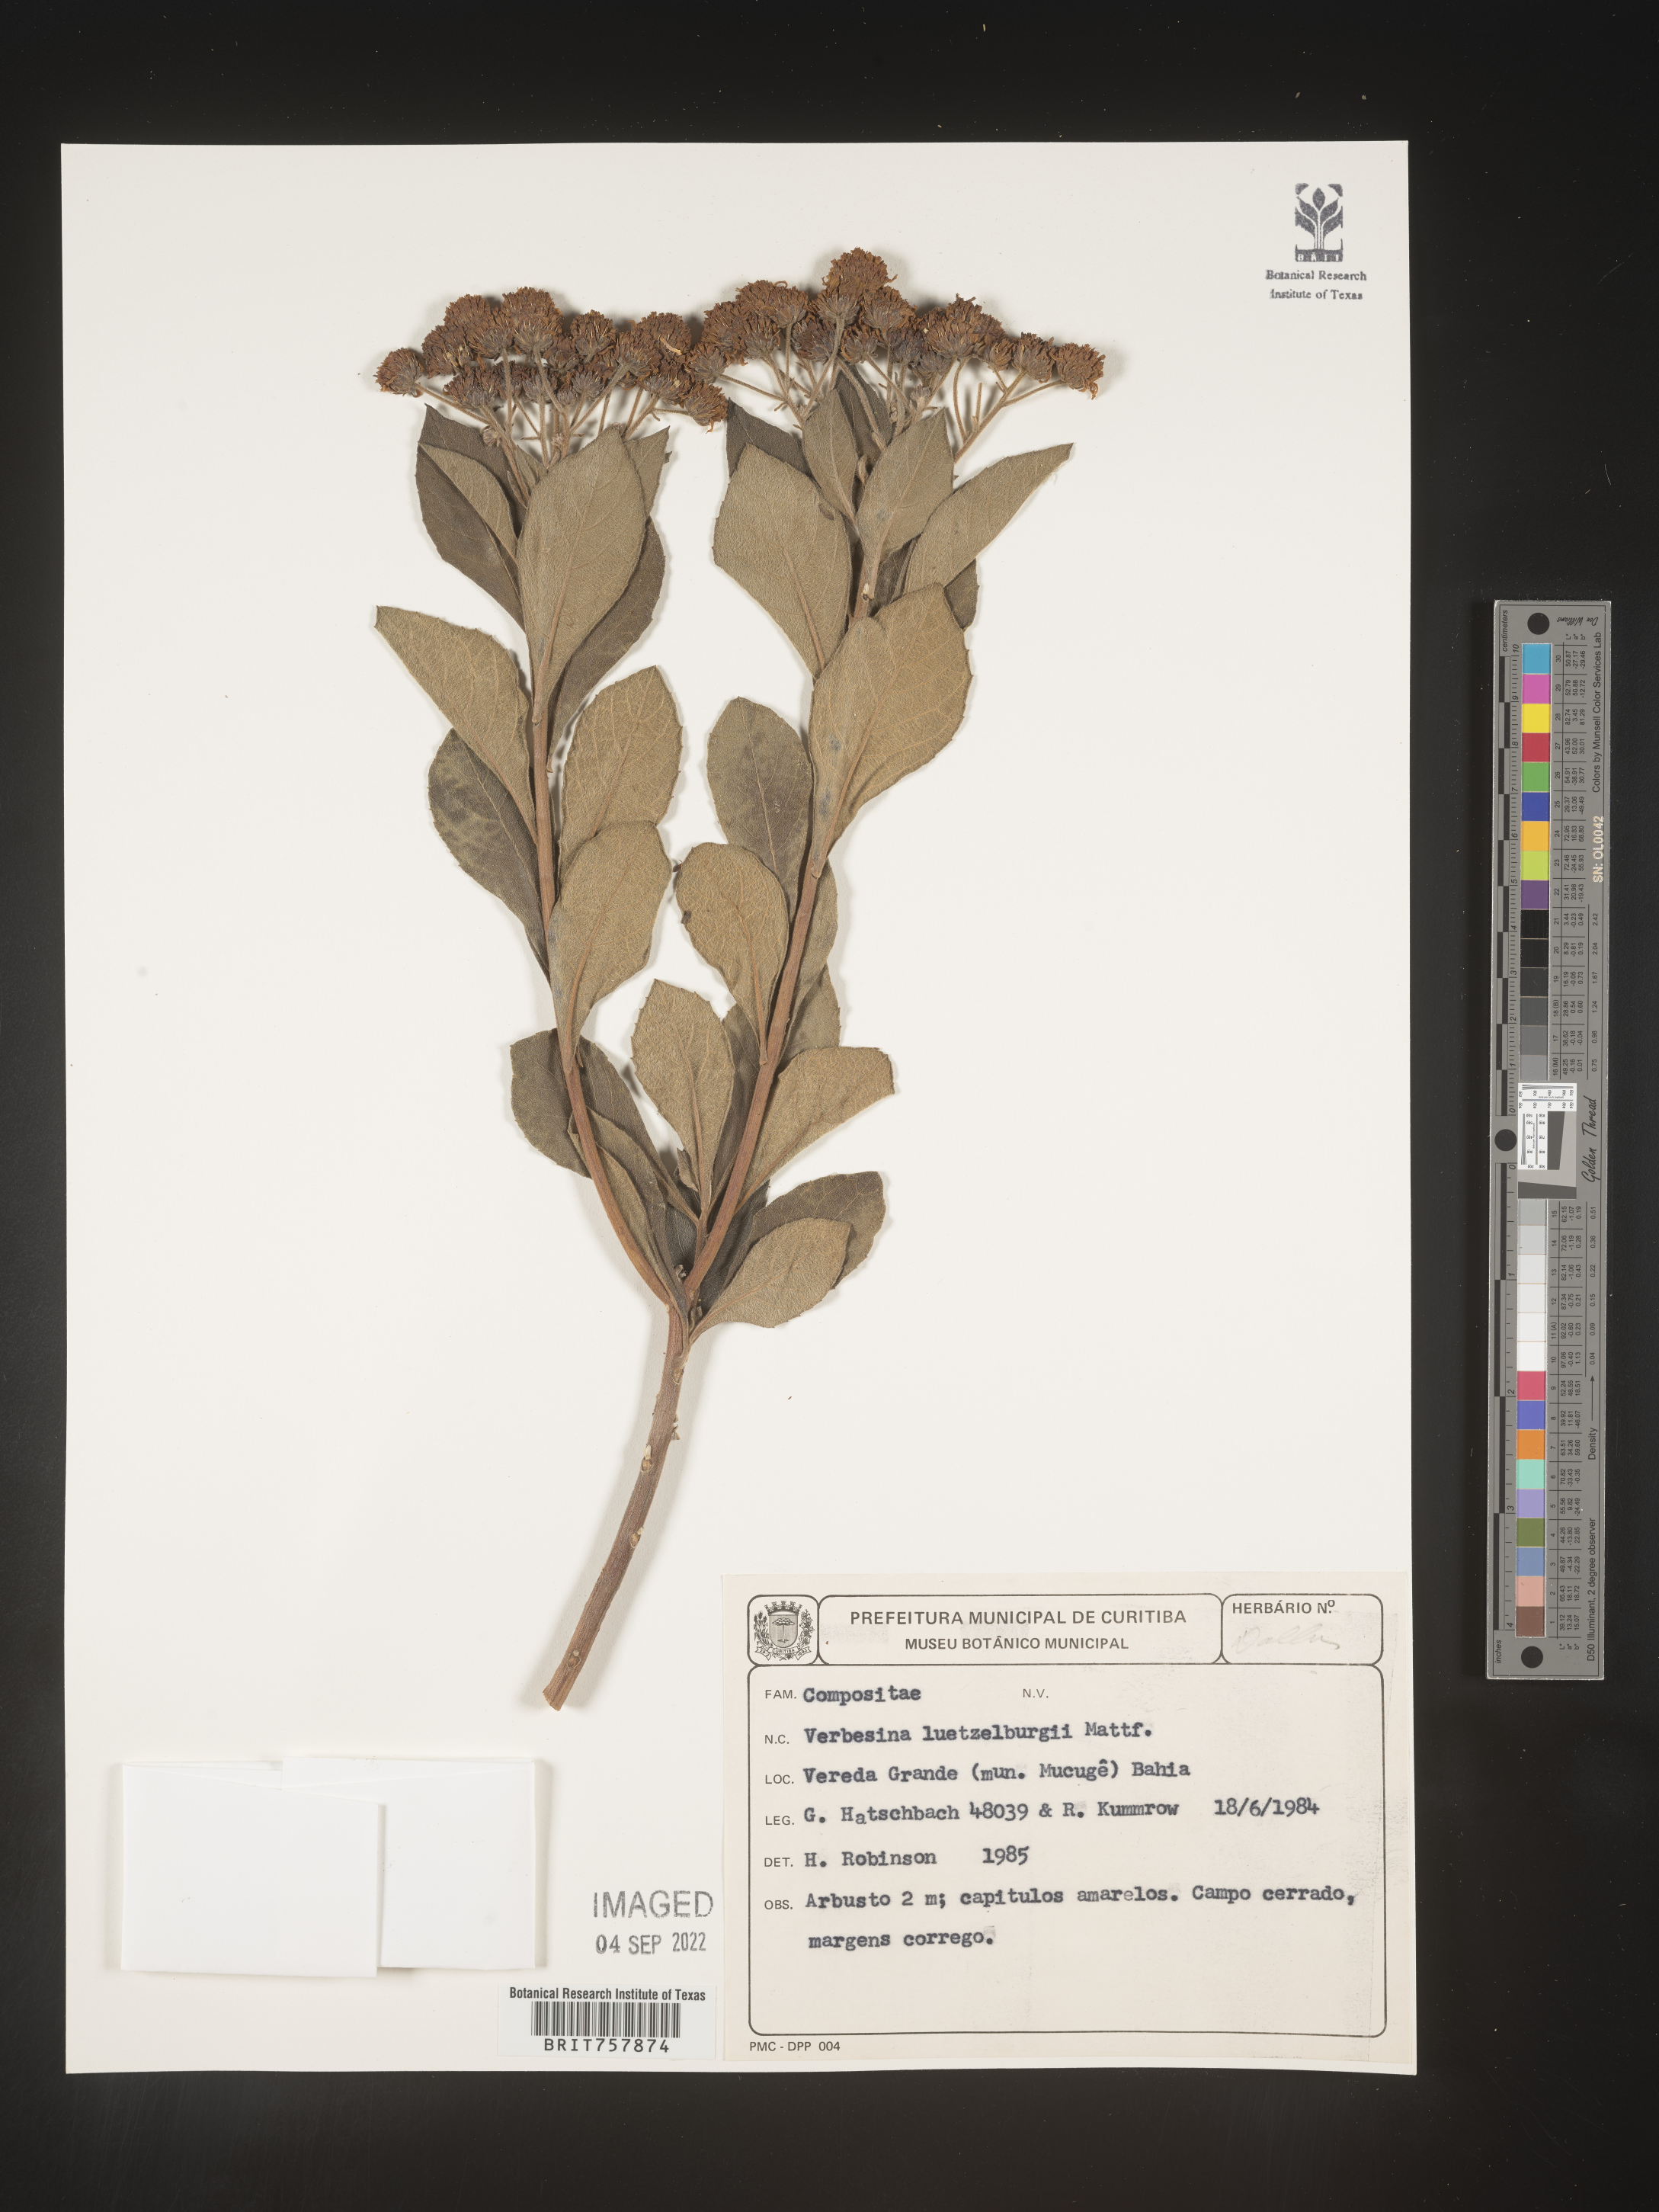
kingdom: Plantae
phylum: Tracheophyta
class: Magnoliopsida
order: Asterales
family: Asteraceae
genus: Verbesina
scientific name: Verbesina
